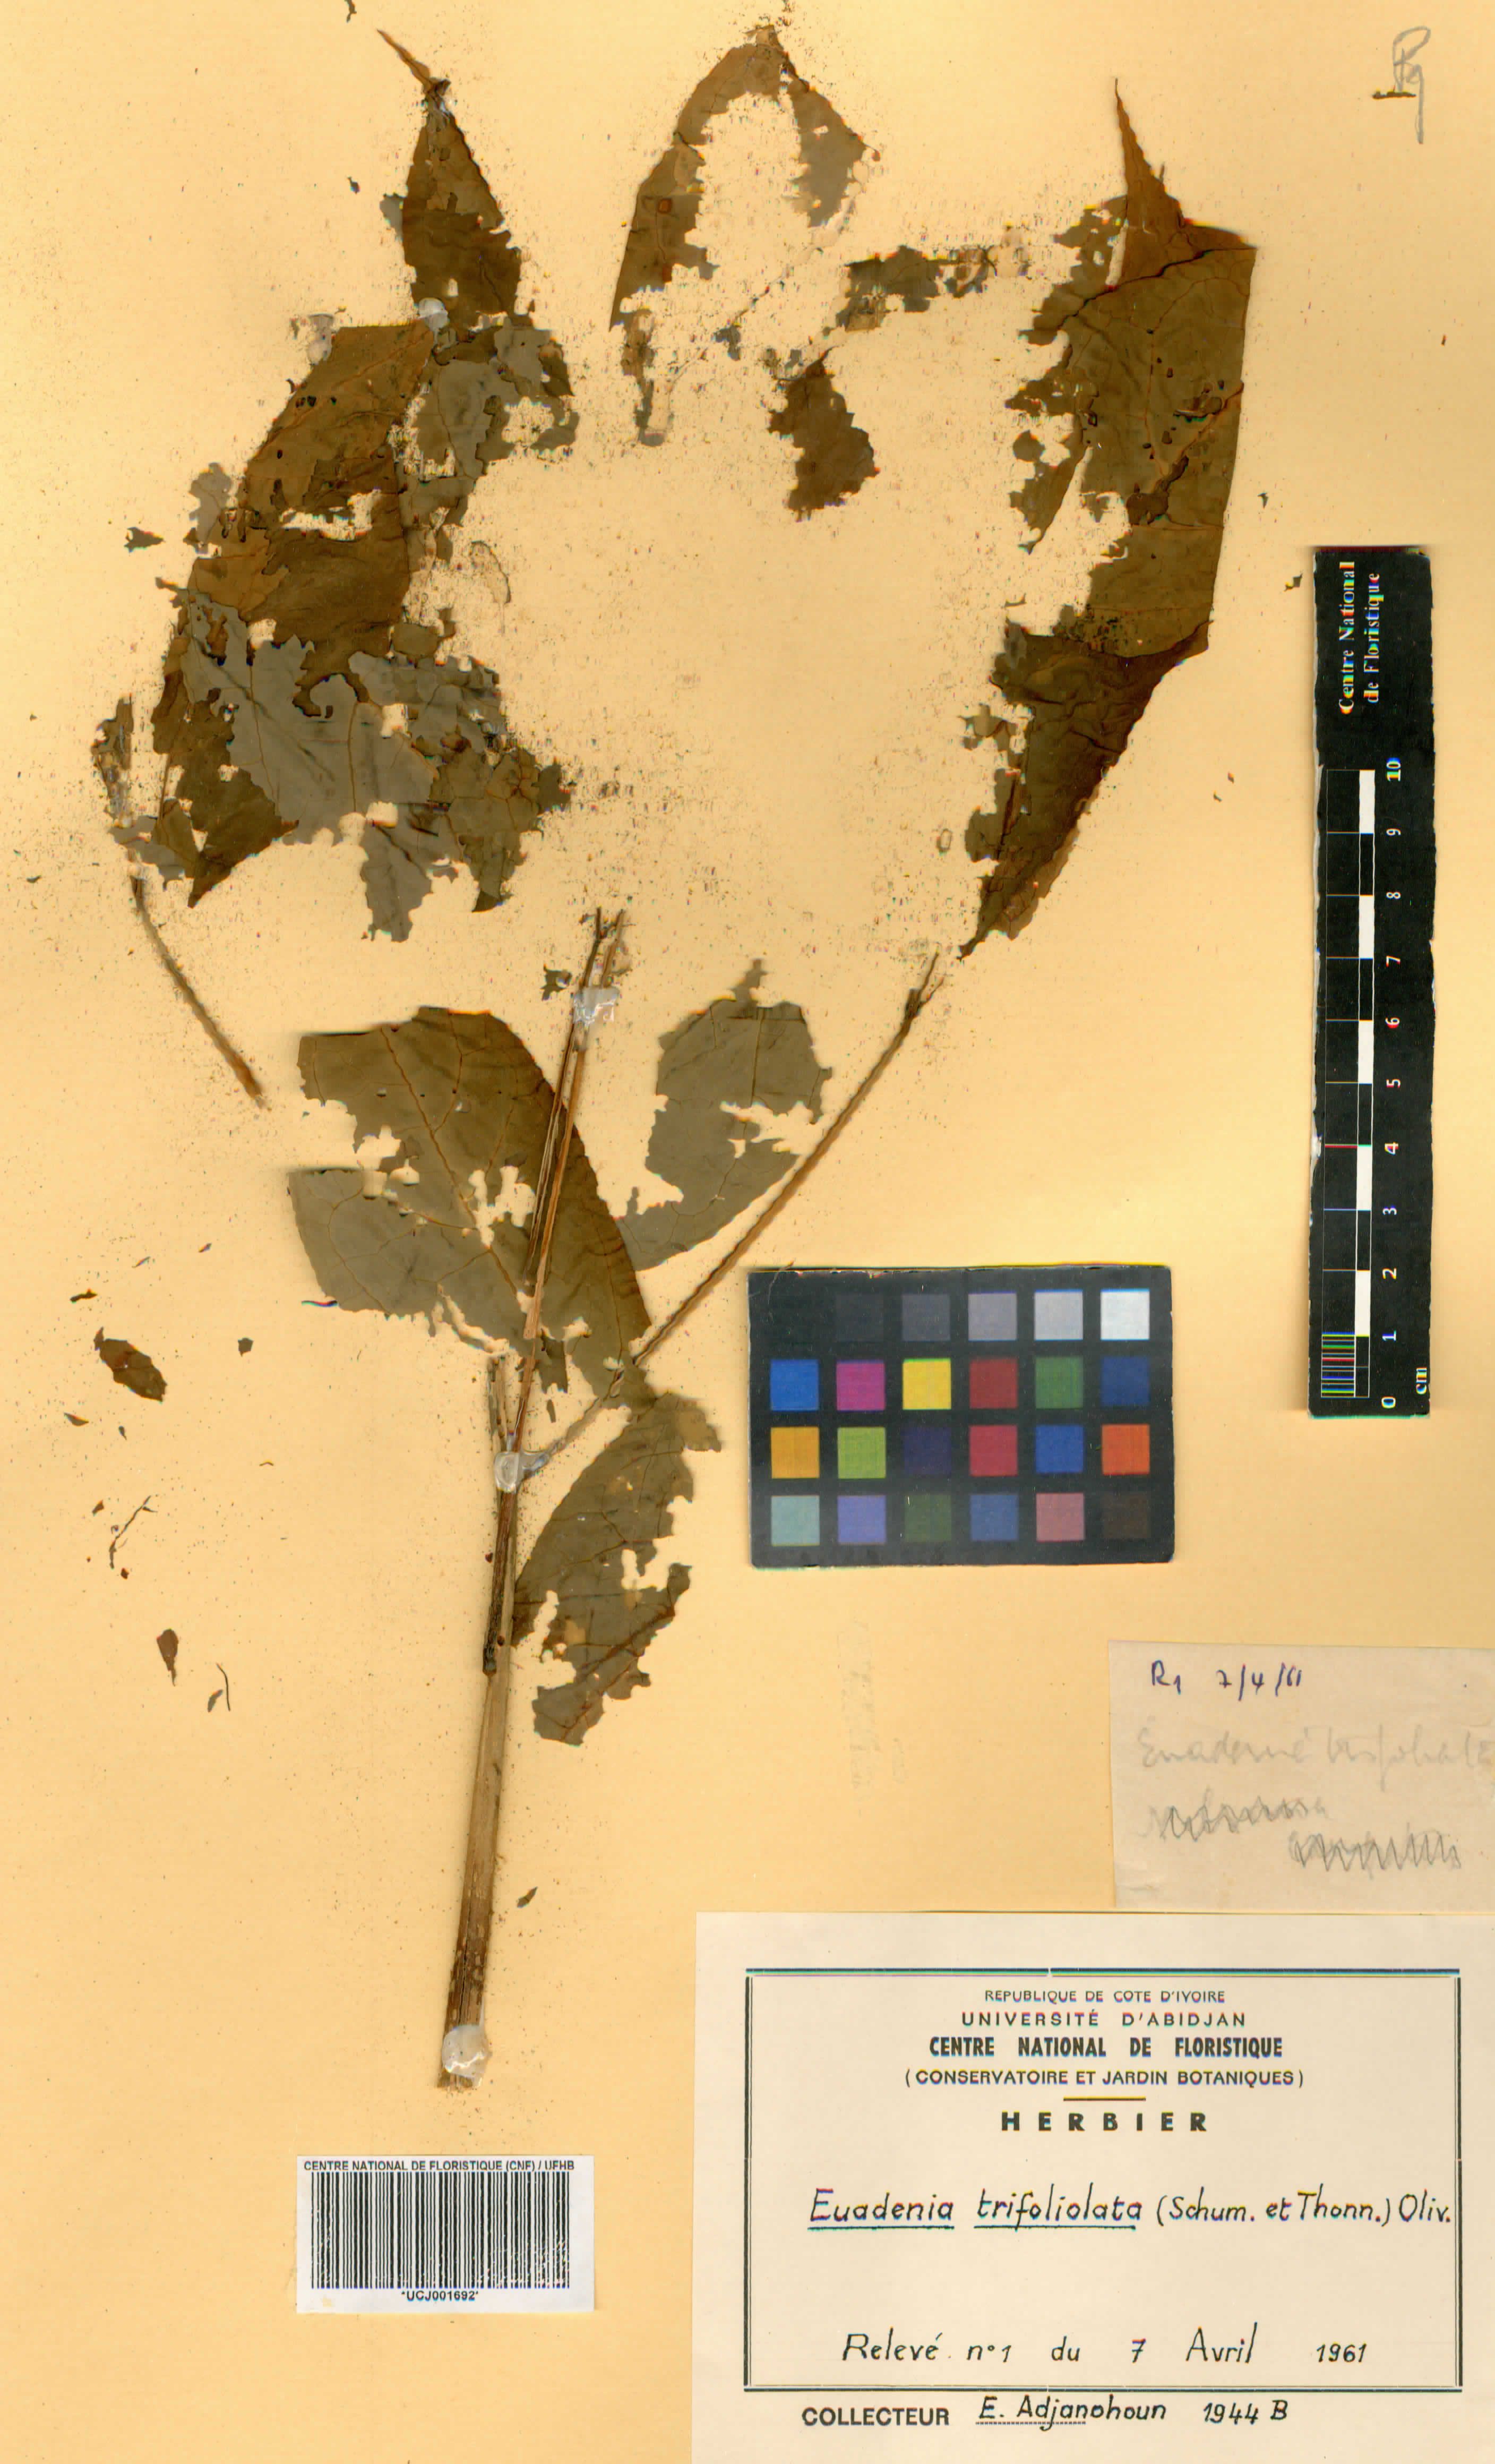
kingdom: Plantae
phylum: Tracheophyta
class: Magnoliopsida
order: Brassicales
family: Capparaceae
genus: Euadenia
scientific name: Euadenia trifoliolata
